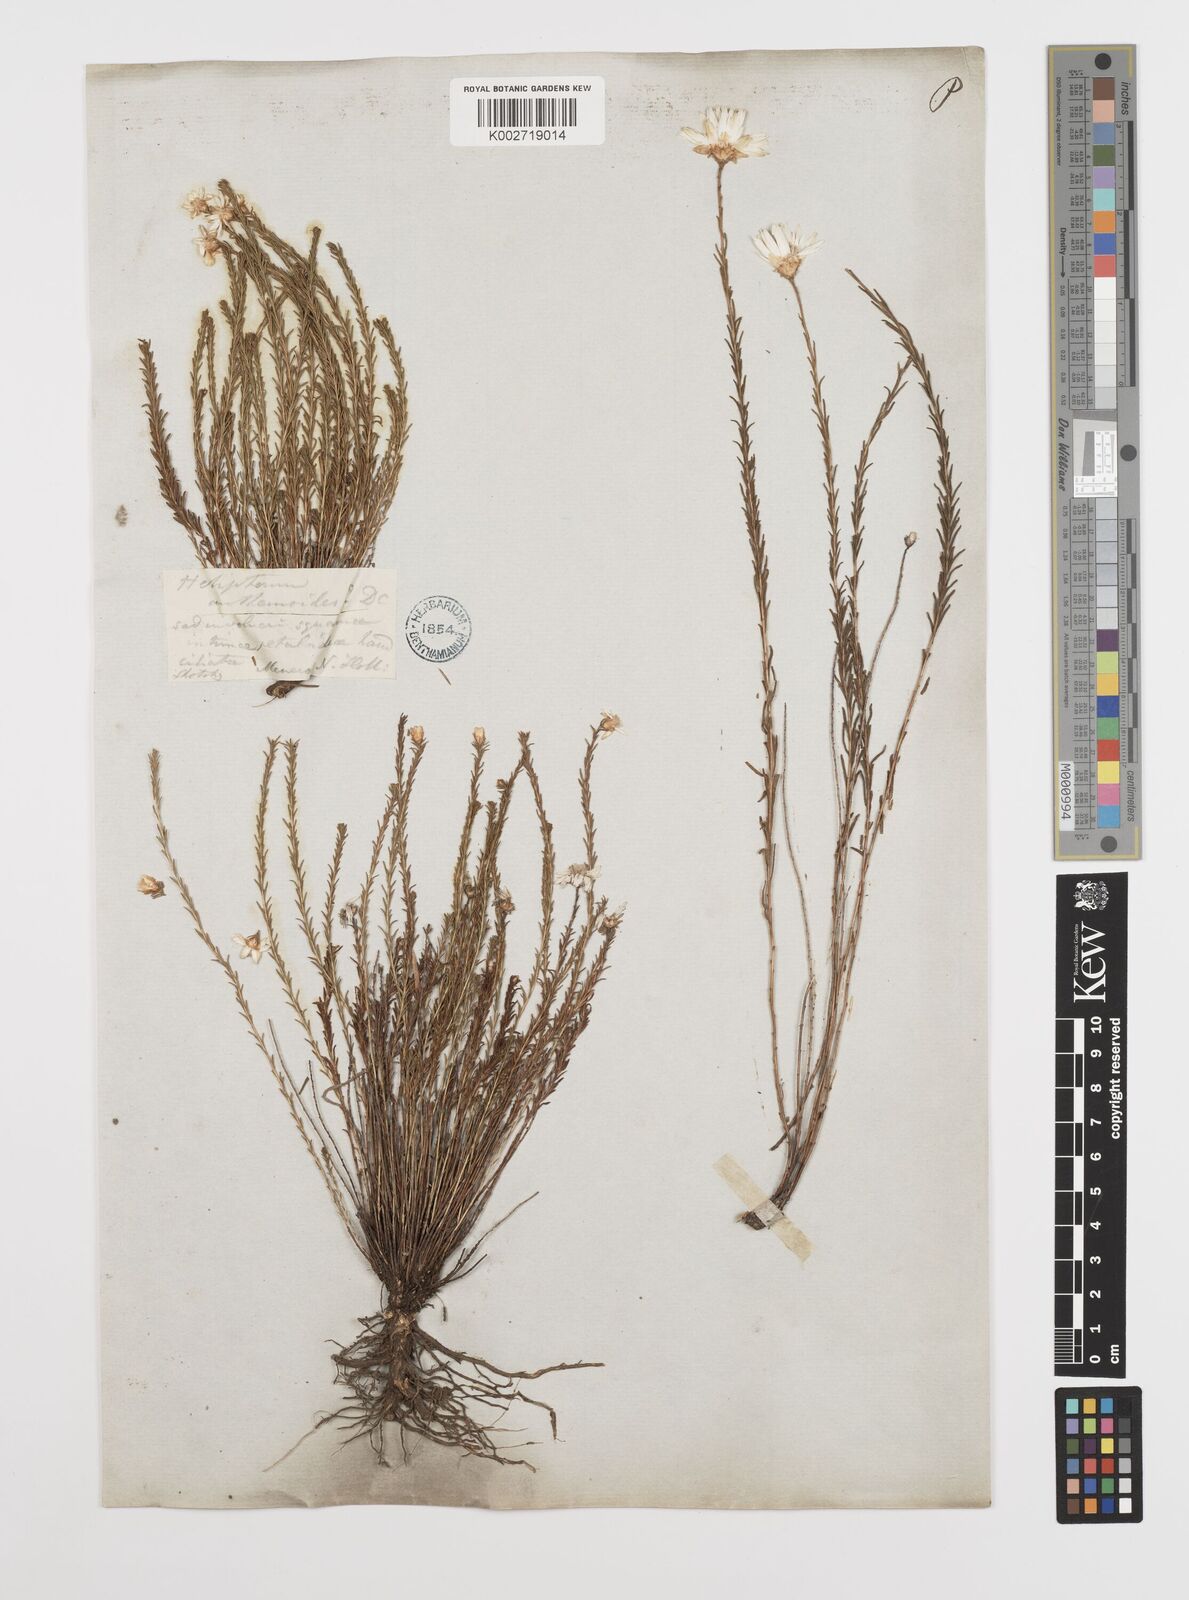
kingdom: Plantae
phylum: Tracheophyta
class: Magnoliopsida
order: Asterales
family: Asteraceae
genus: Rhodanthe
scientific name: Rhodanthe anthemoides
